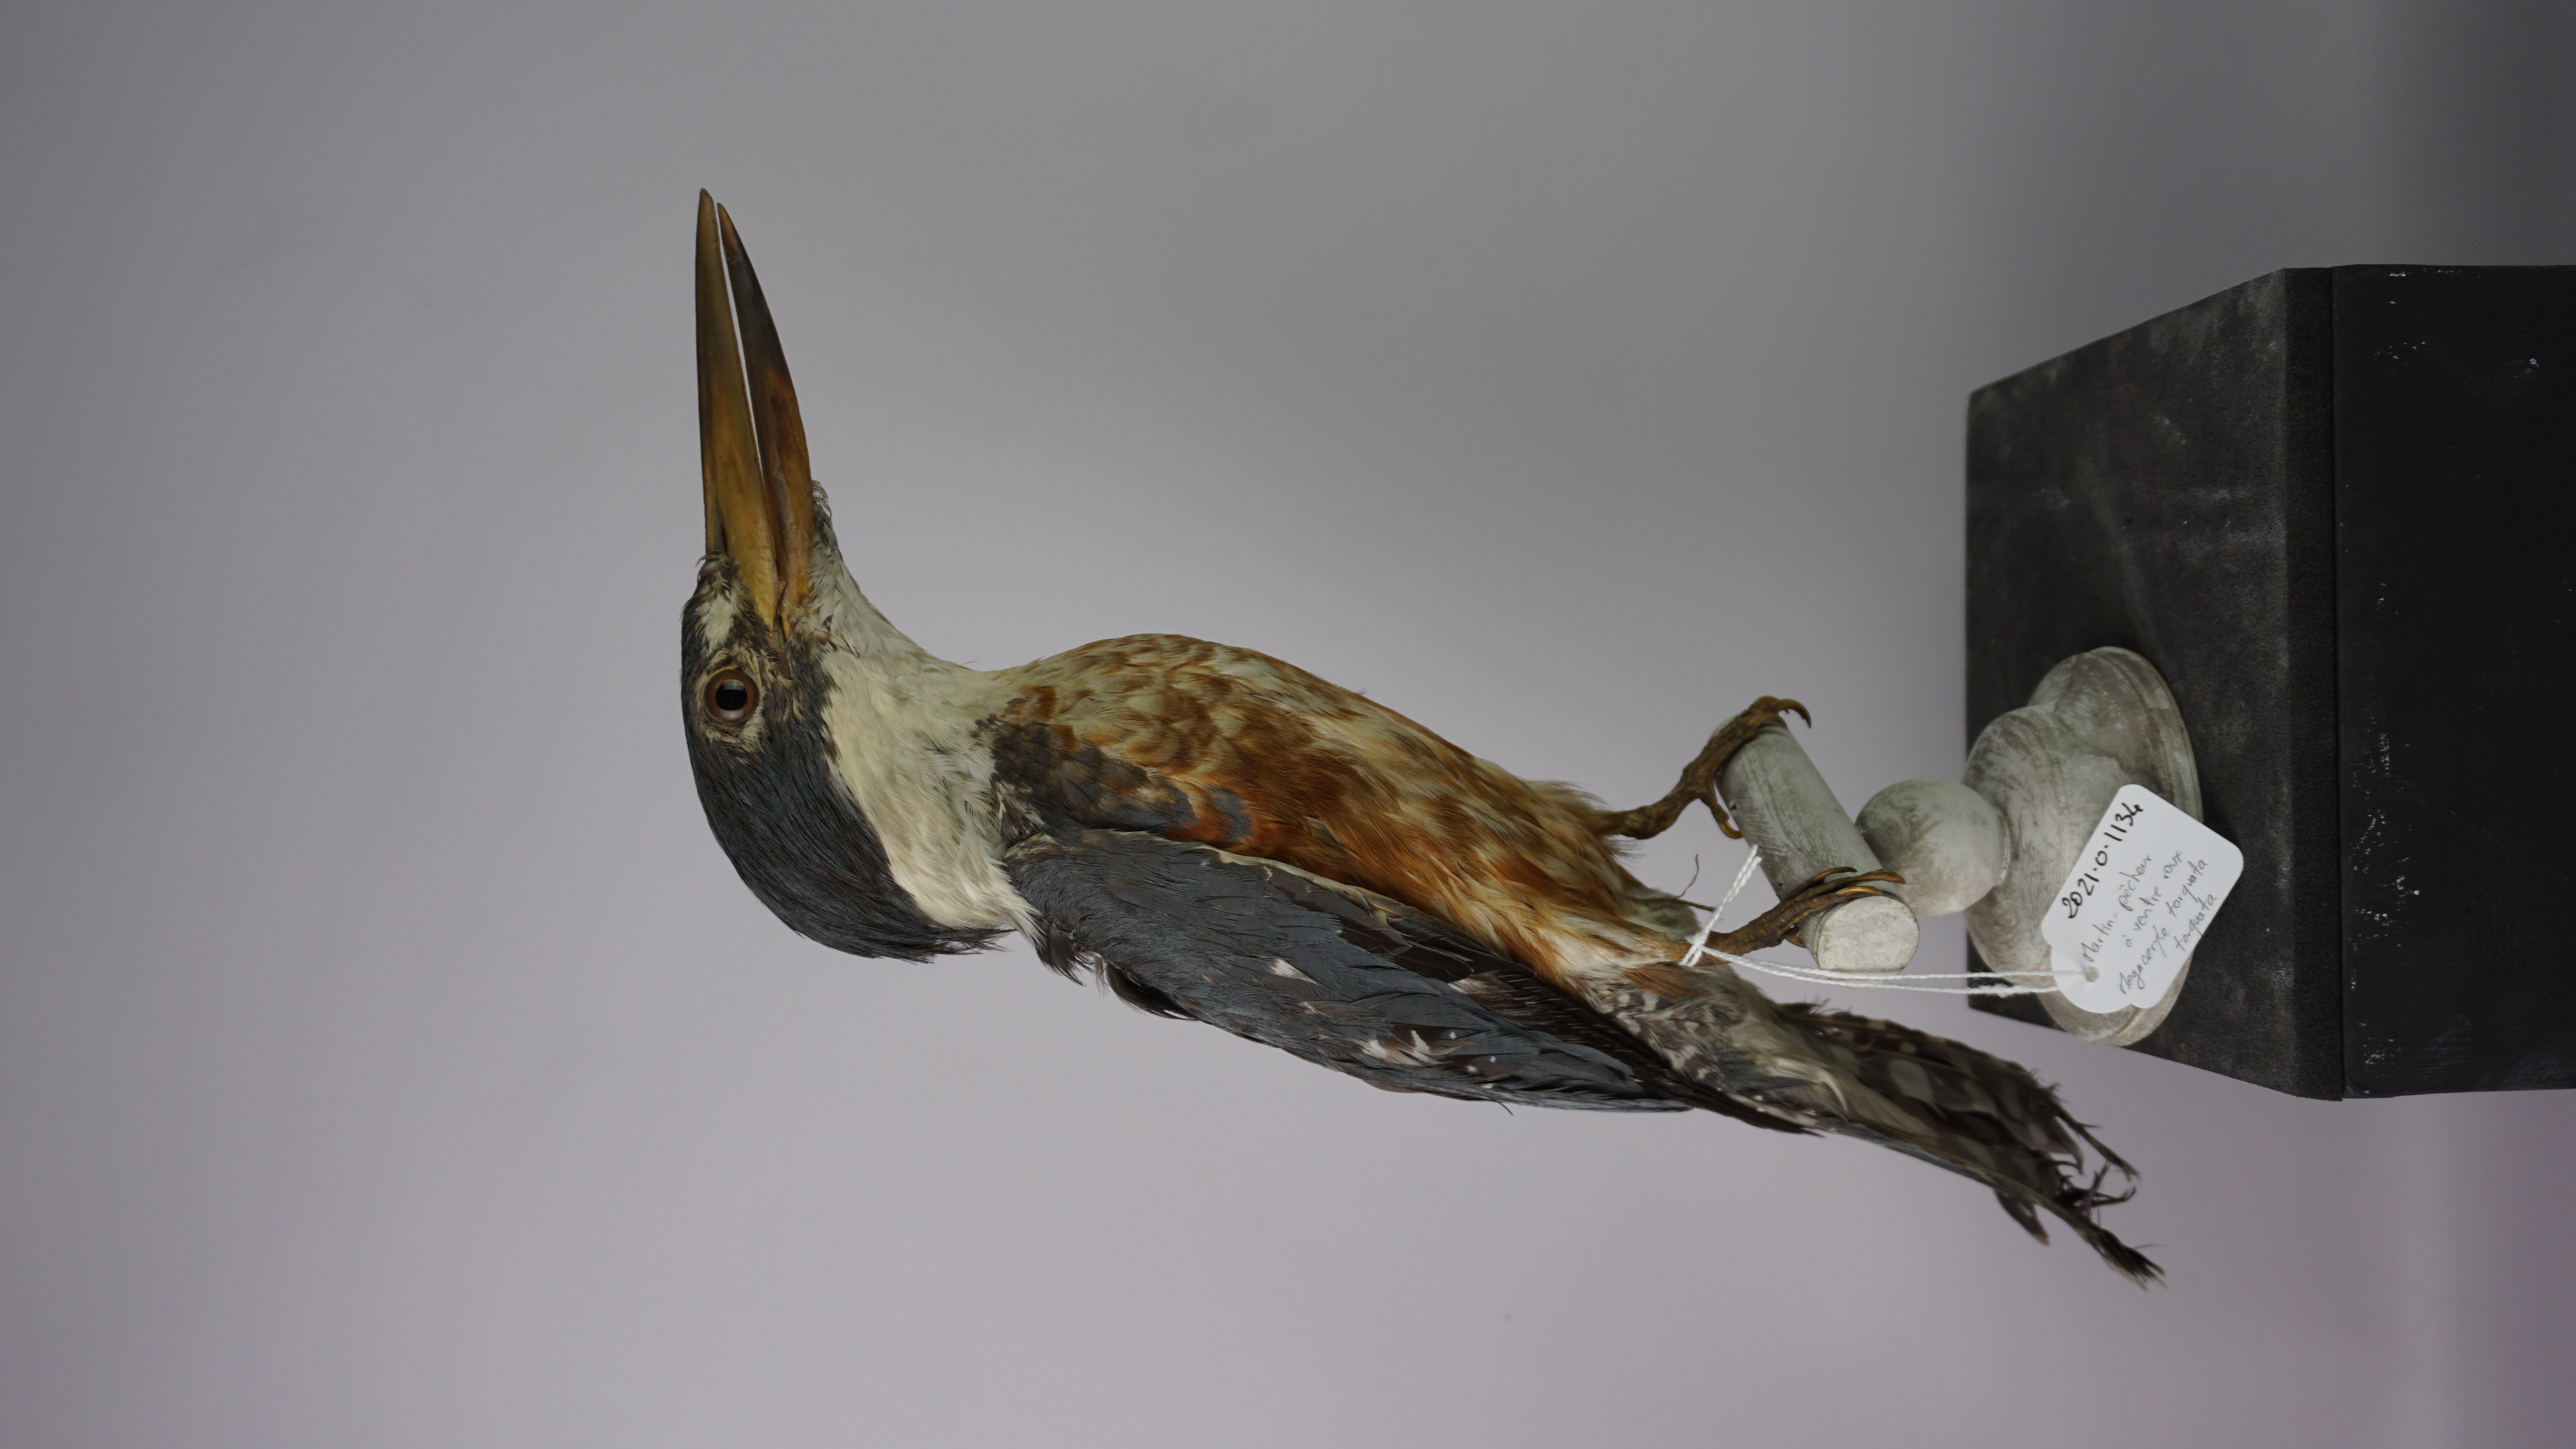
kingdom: Animalia
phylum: Chordata
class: Aves
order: Coraciiformes
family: Alcedinidae
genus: Megaceryle
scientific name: Megaceryle torquata
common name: Ringed kingfisher
